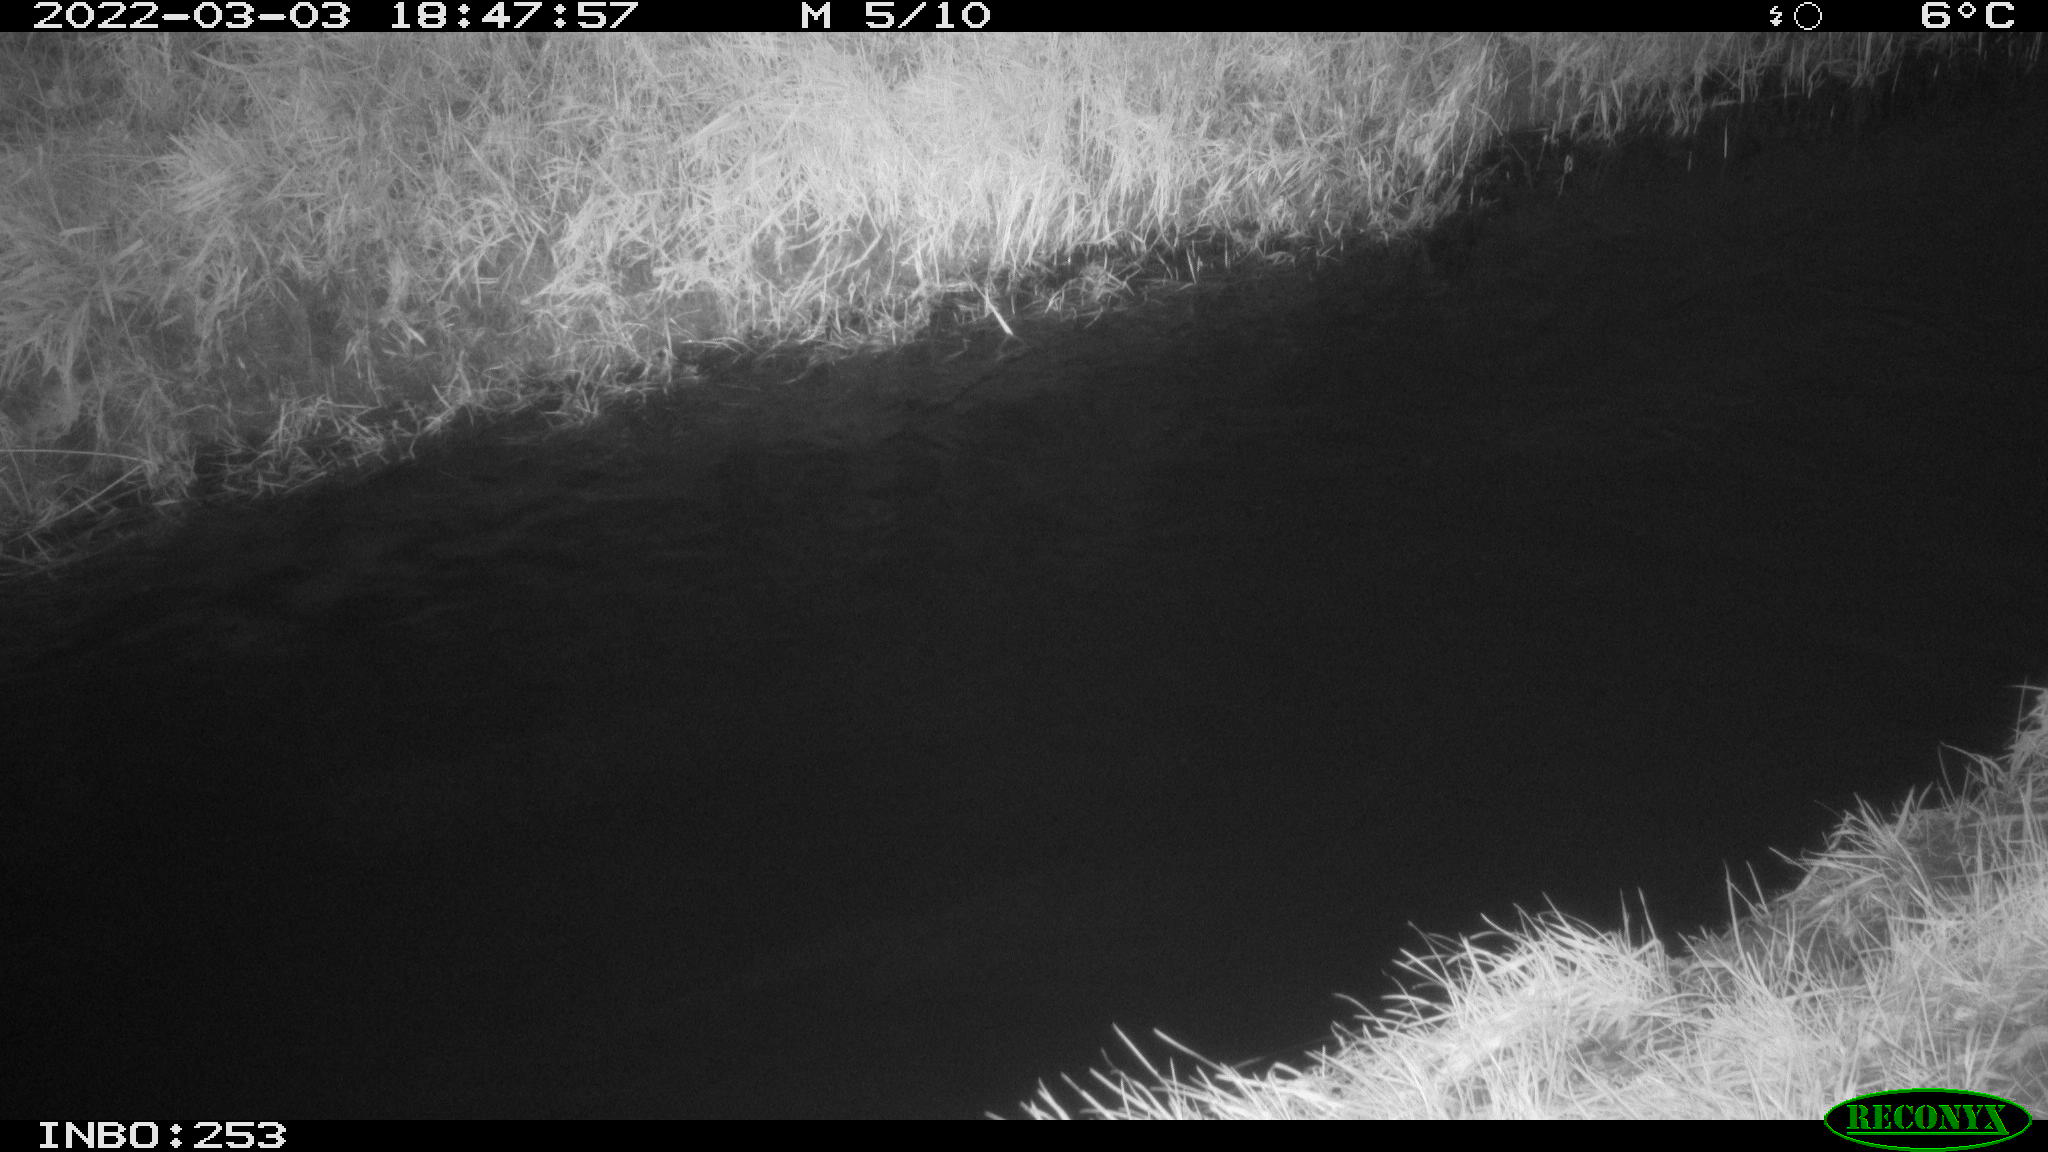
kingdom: Animalia
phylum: Chordata
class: Aves
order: Anseriformes
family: Anatidae
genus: Anas
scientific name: Anas platyrhynchos
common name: Mallard
